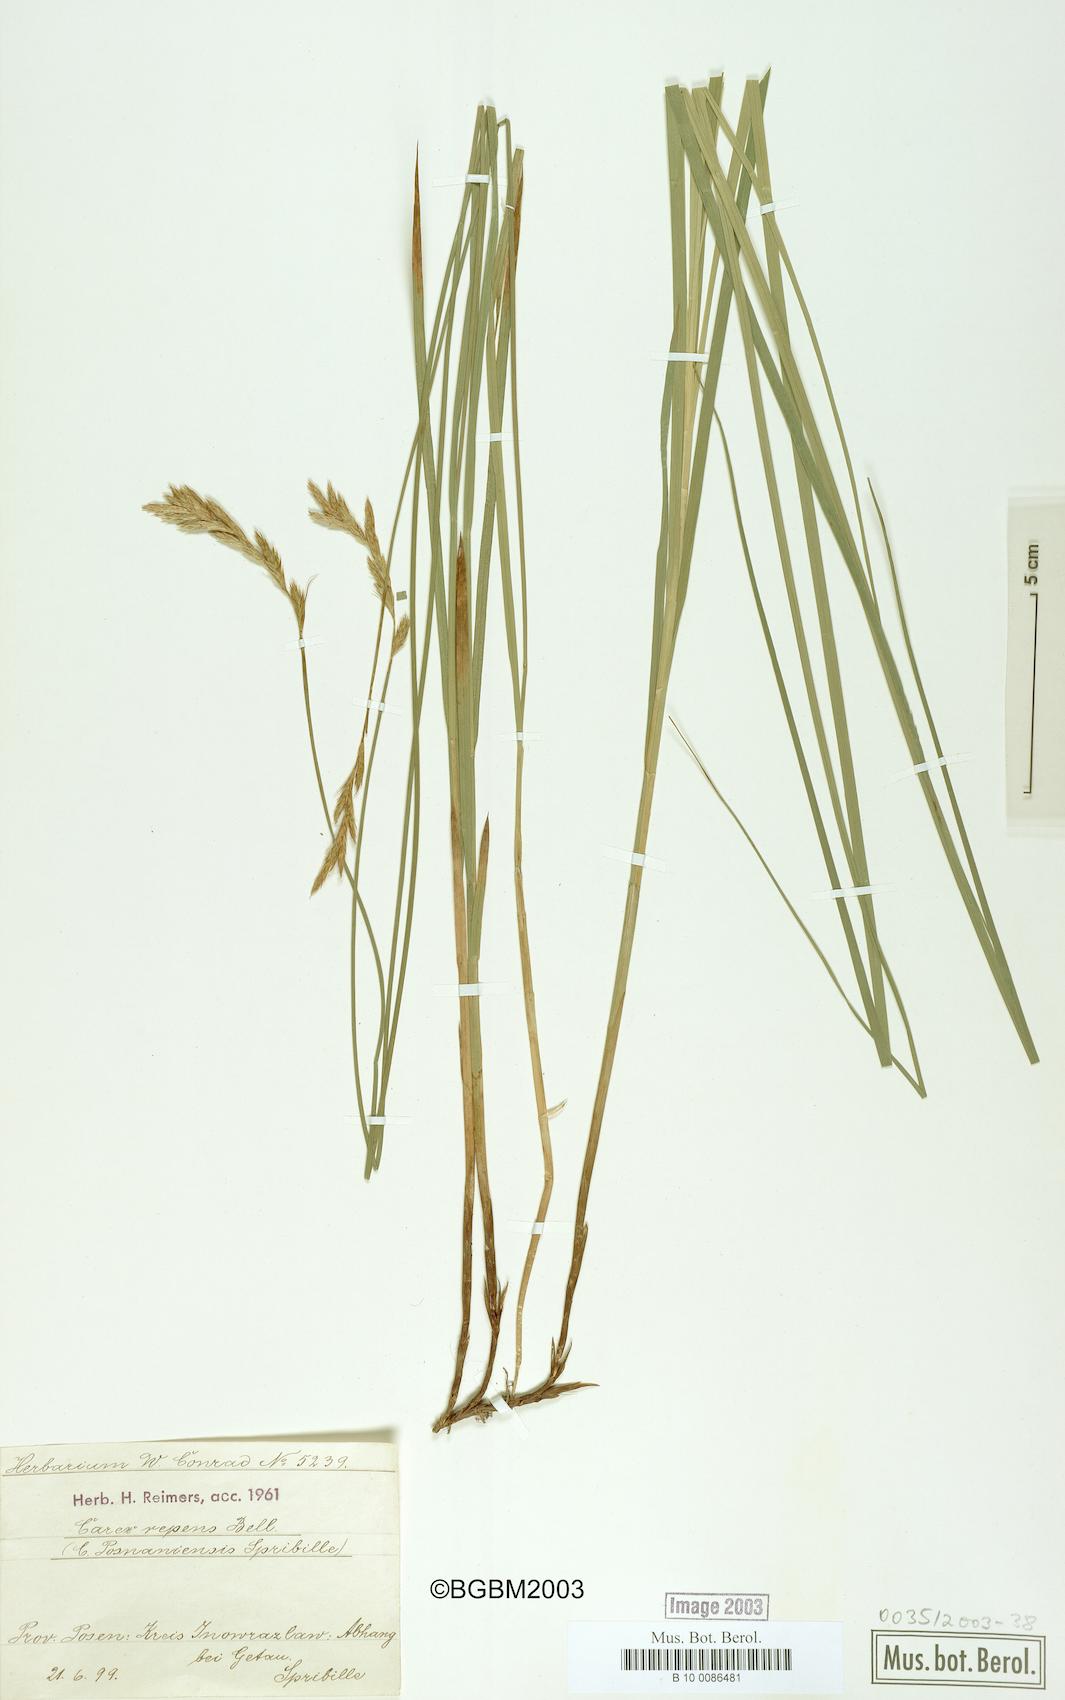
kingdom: Plantae
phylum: Tracheophyta
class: Liliopsida
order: Poales
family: Cyperaceae
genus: Carex
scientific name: Carex repens
